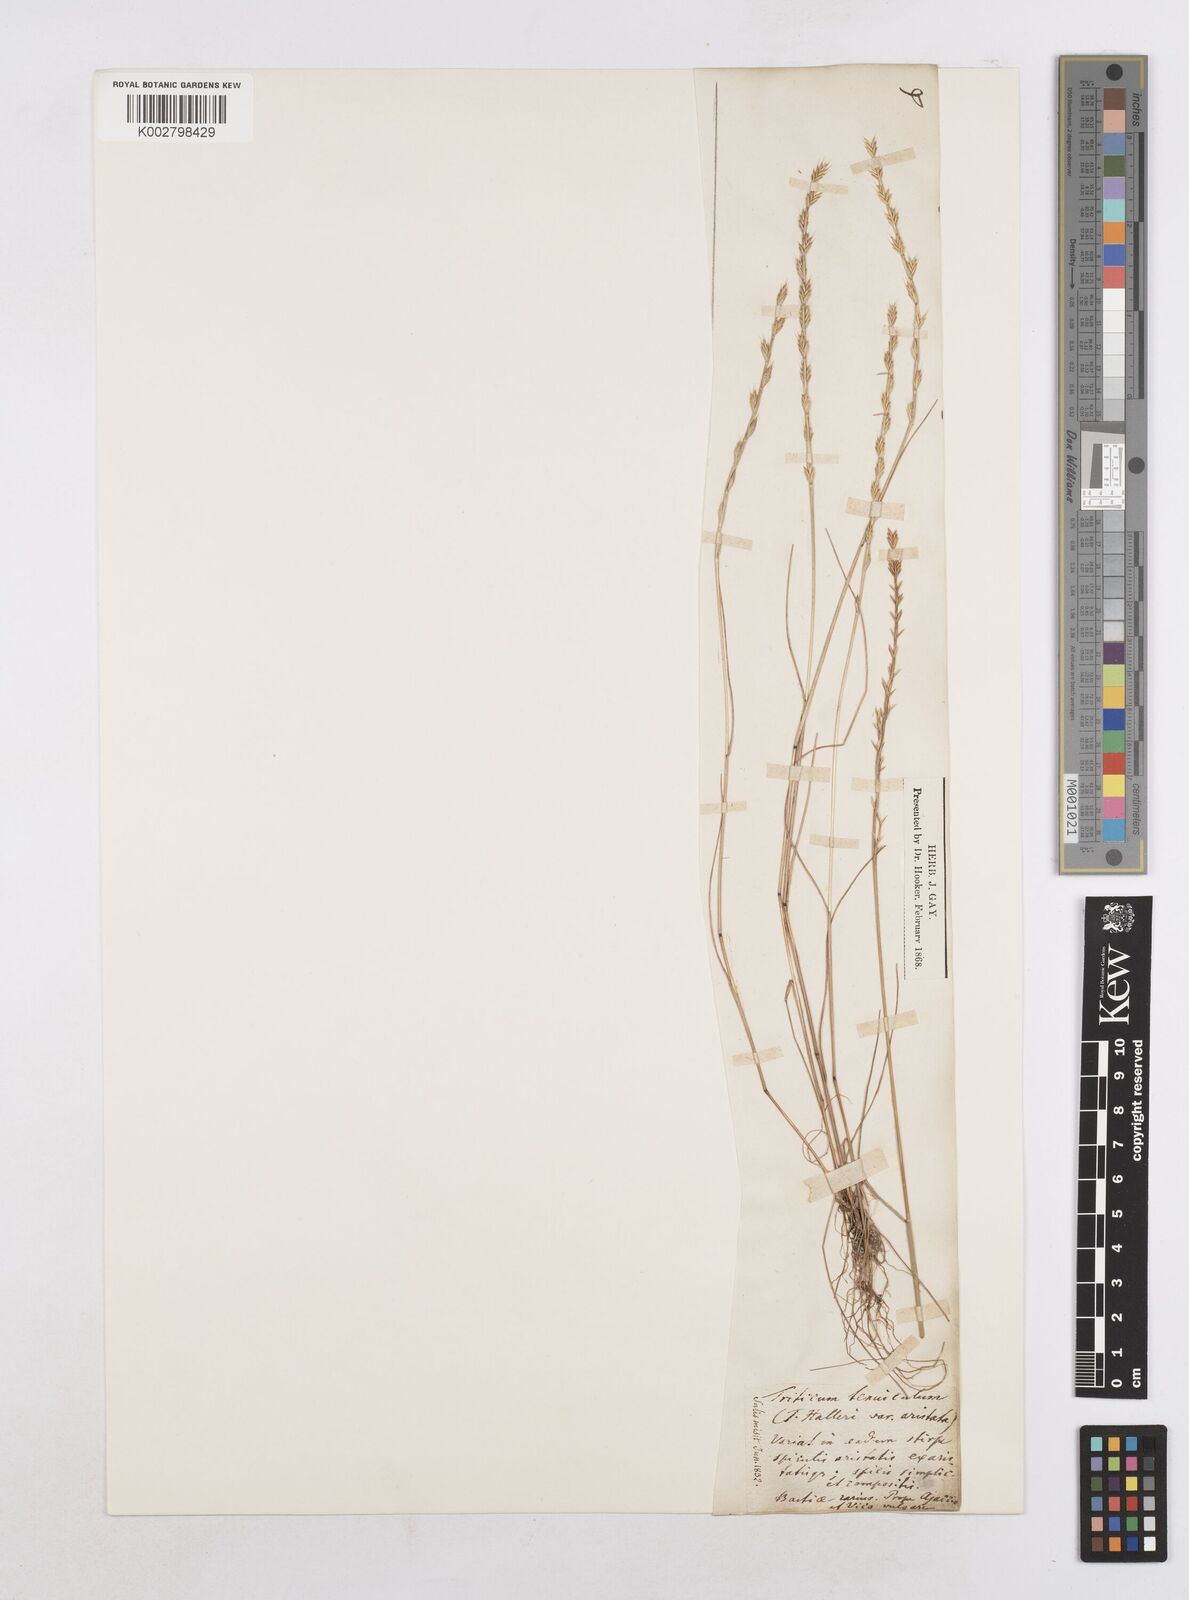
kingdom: Plantae
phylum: Tracheophyta
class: Liliopsida
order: Poales
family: Poaceae
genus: Festuca
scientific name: Festuca lachenalii
